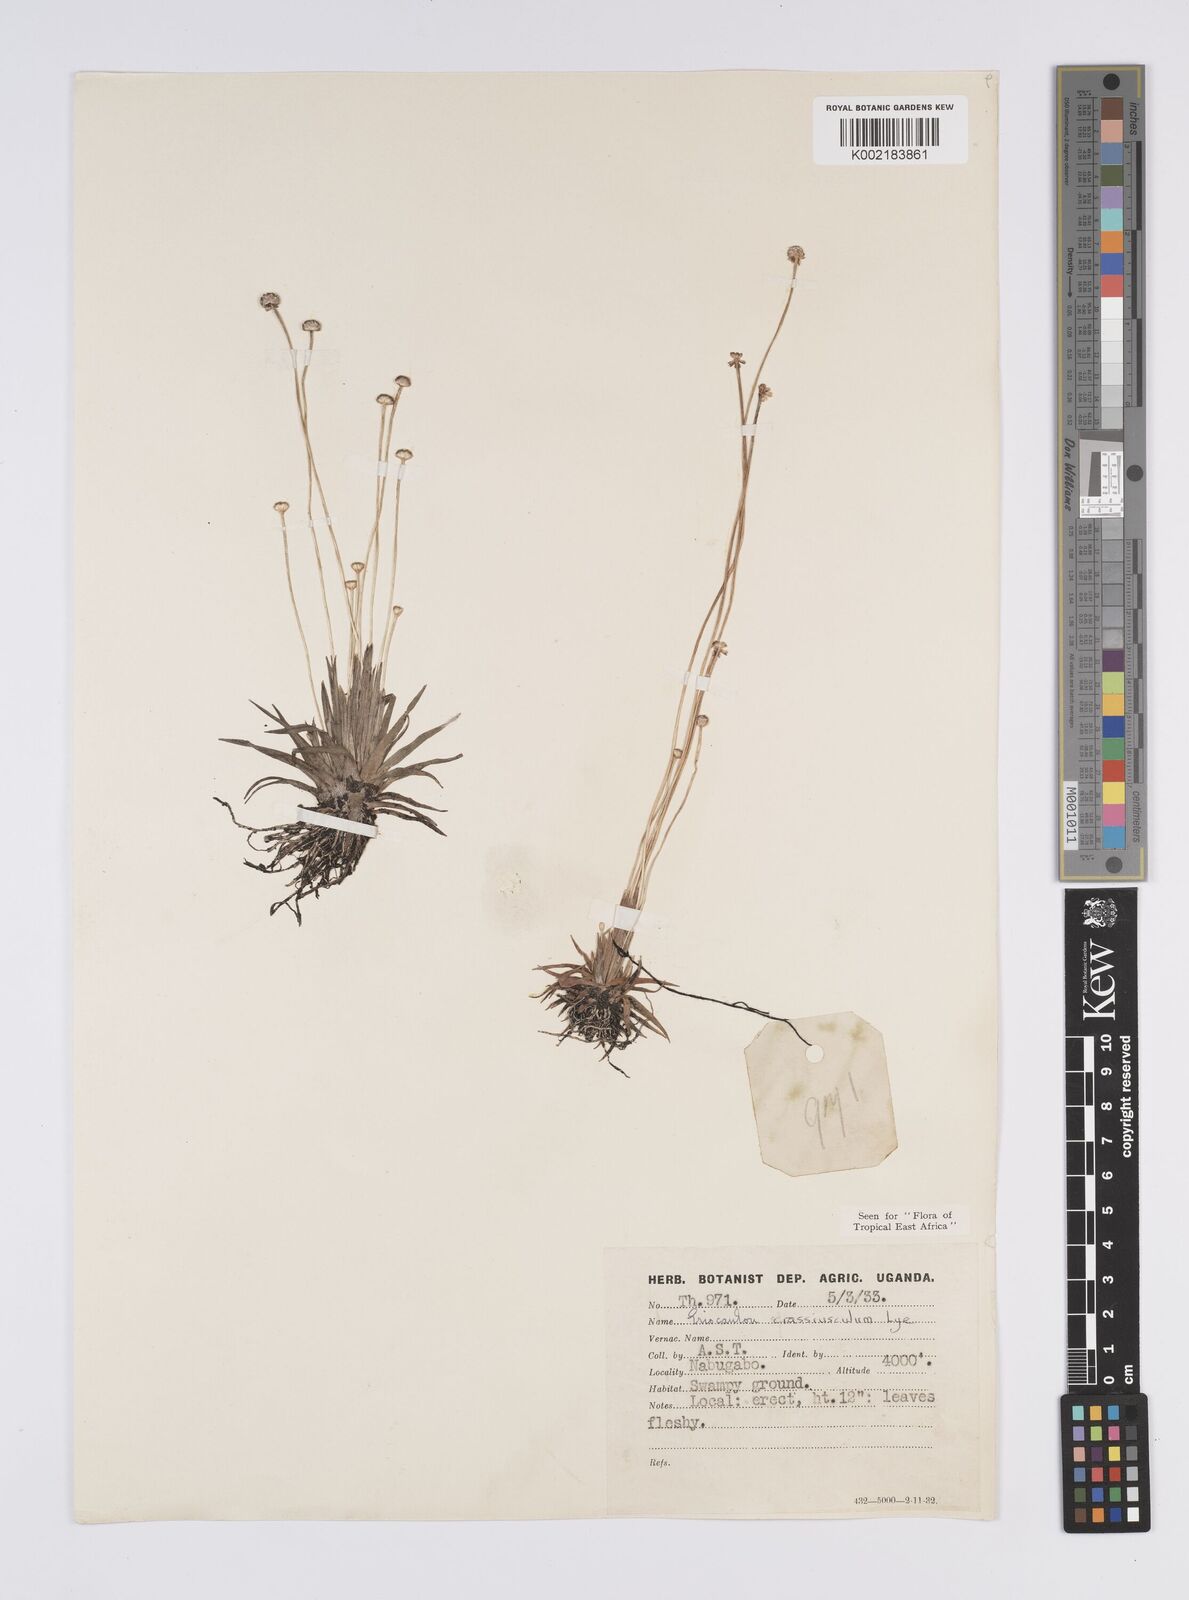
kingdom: Plantae
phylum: Tracheophyta
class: Liliopsida
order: Poales
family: Eriocaulaceae
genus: Eriocaulon
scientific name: Eriocaulon crassiusculum
